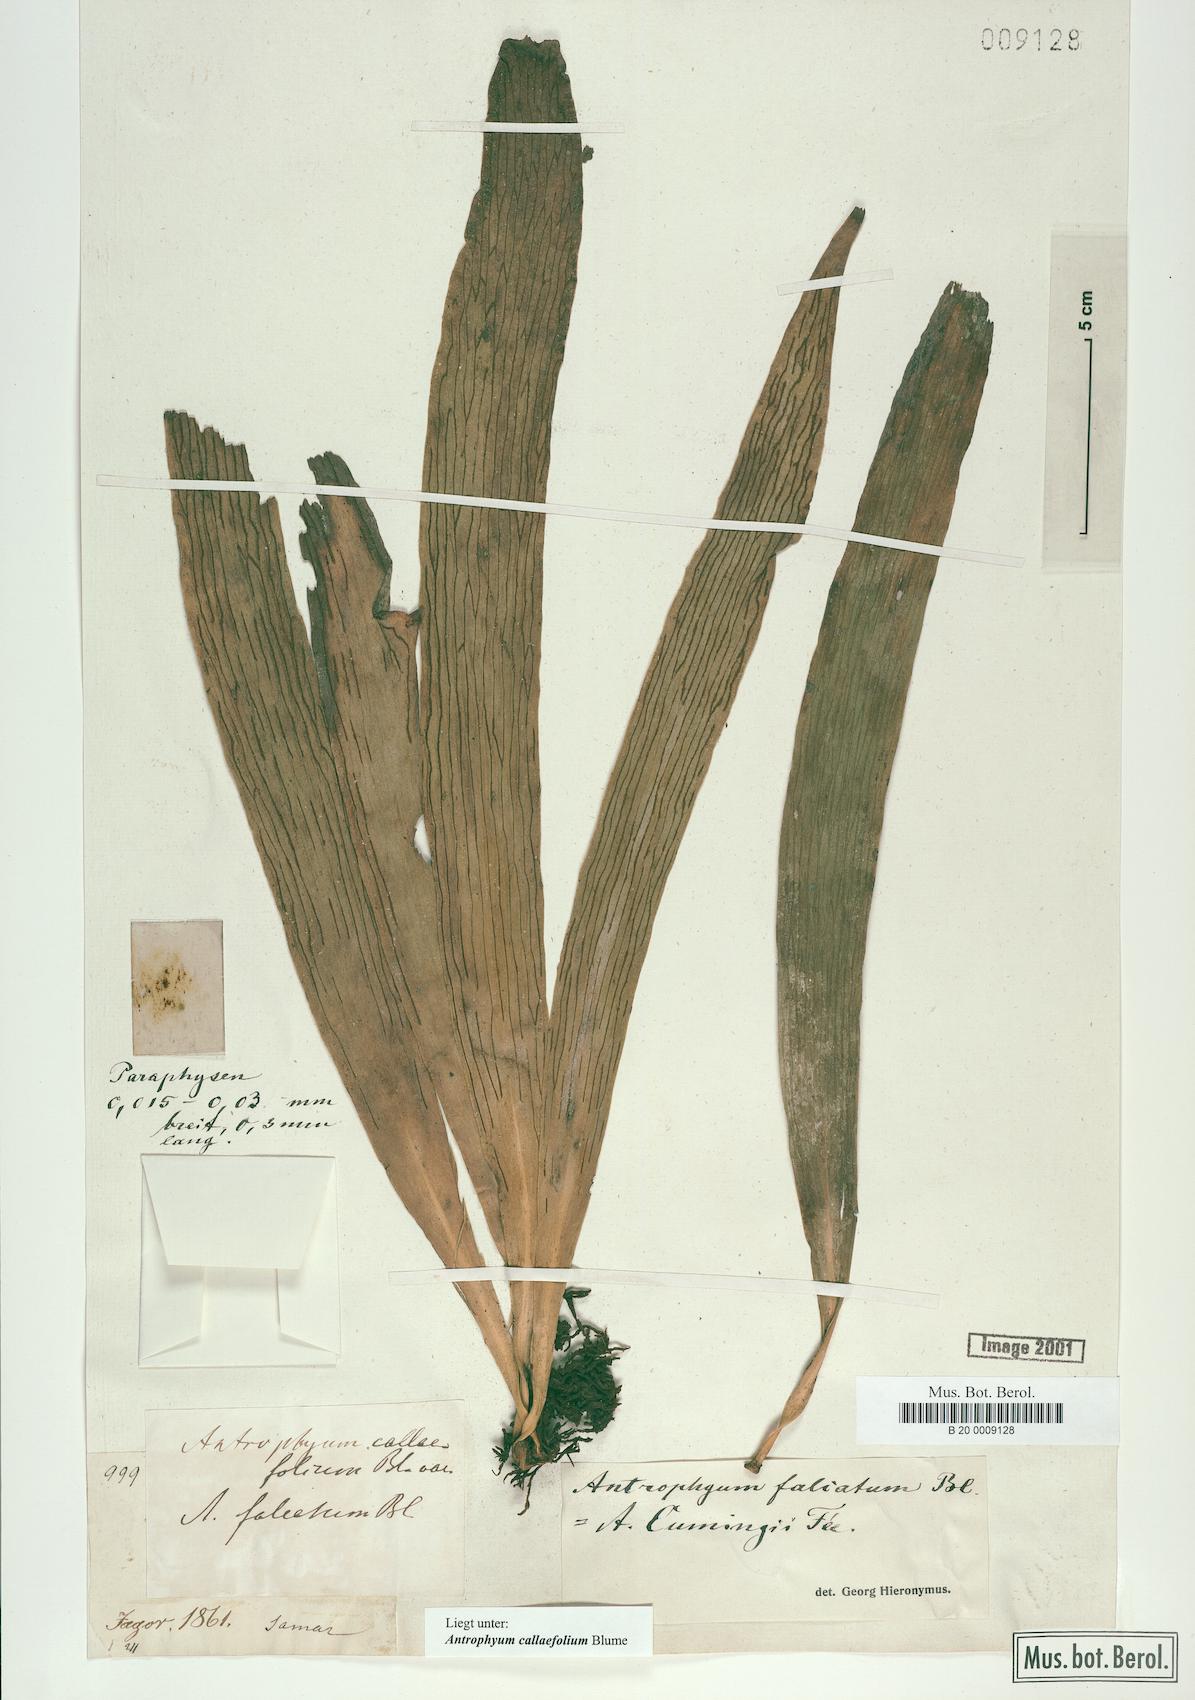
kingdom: Plantae
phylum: Tracheophyta
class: Polypodiopsida
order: Polypodiales
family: Pteridaceae
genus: Antrophyum
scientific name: Antrophyum callifolium
